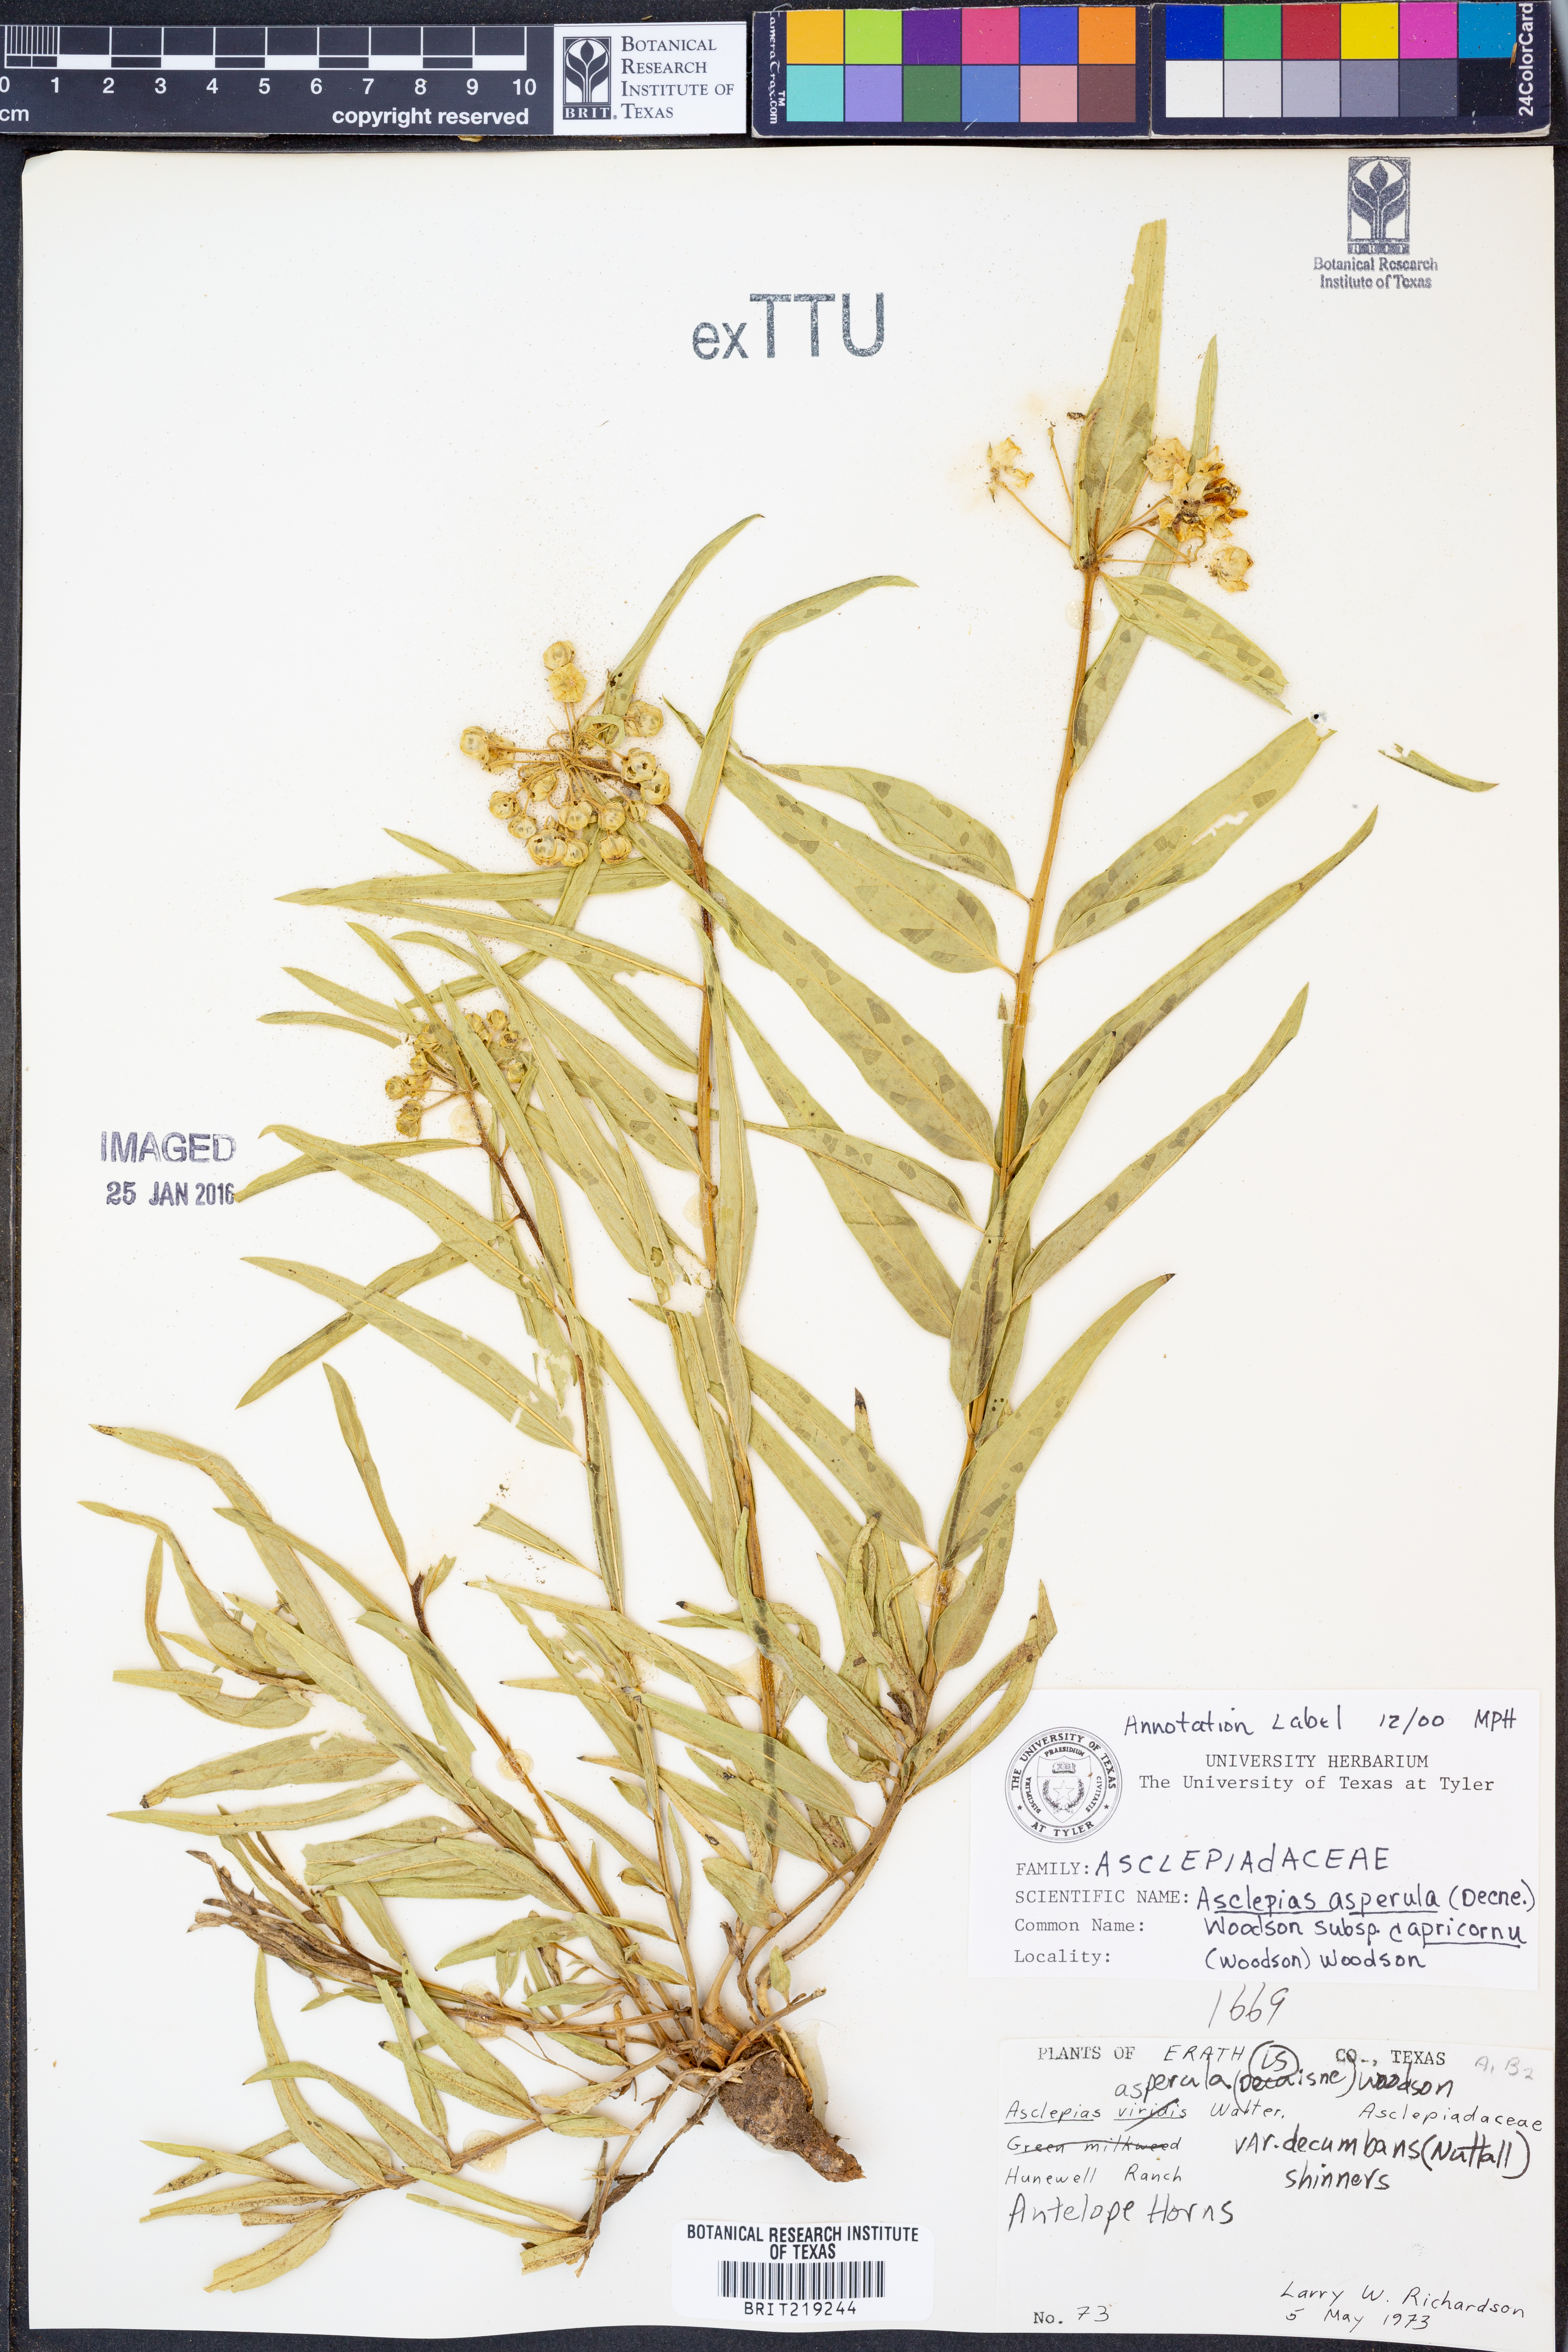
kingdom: Plantae
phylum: Tracheophyta
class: Magnoliopsida
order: Gentianales
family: Apocynaceae
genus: Asclepias
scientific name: Asclepias asperula
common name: Antelope horns
